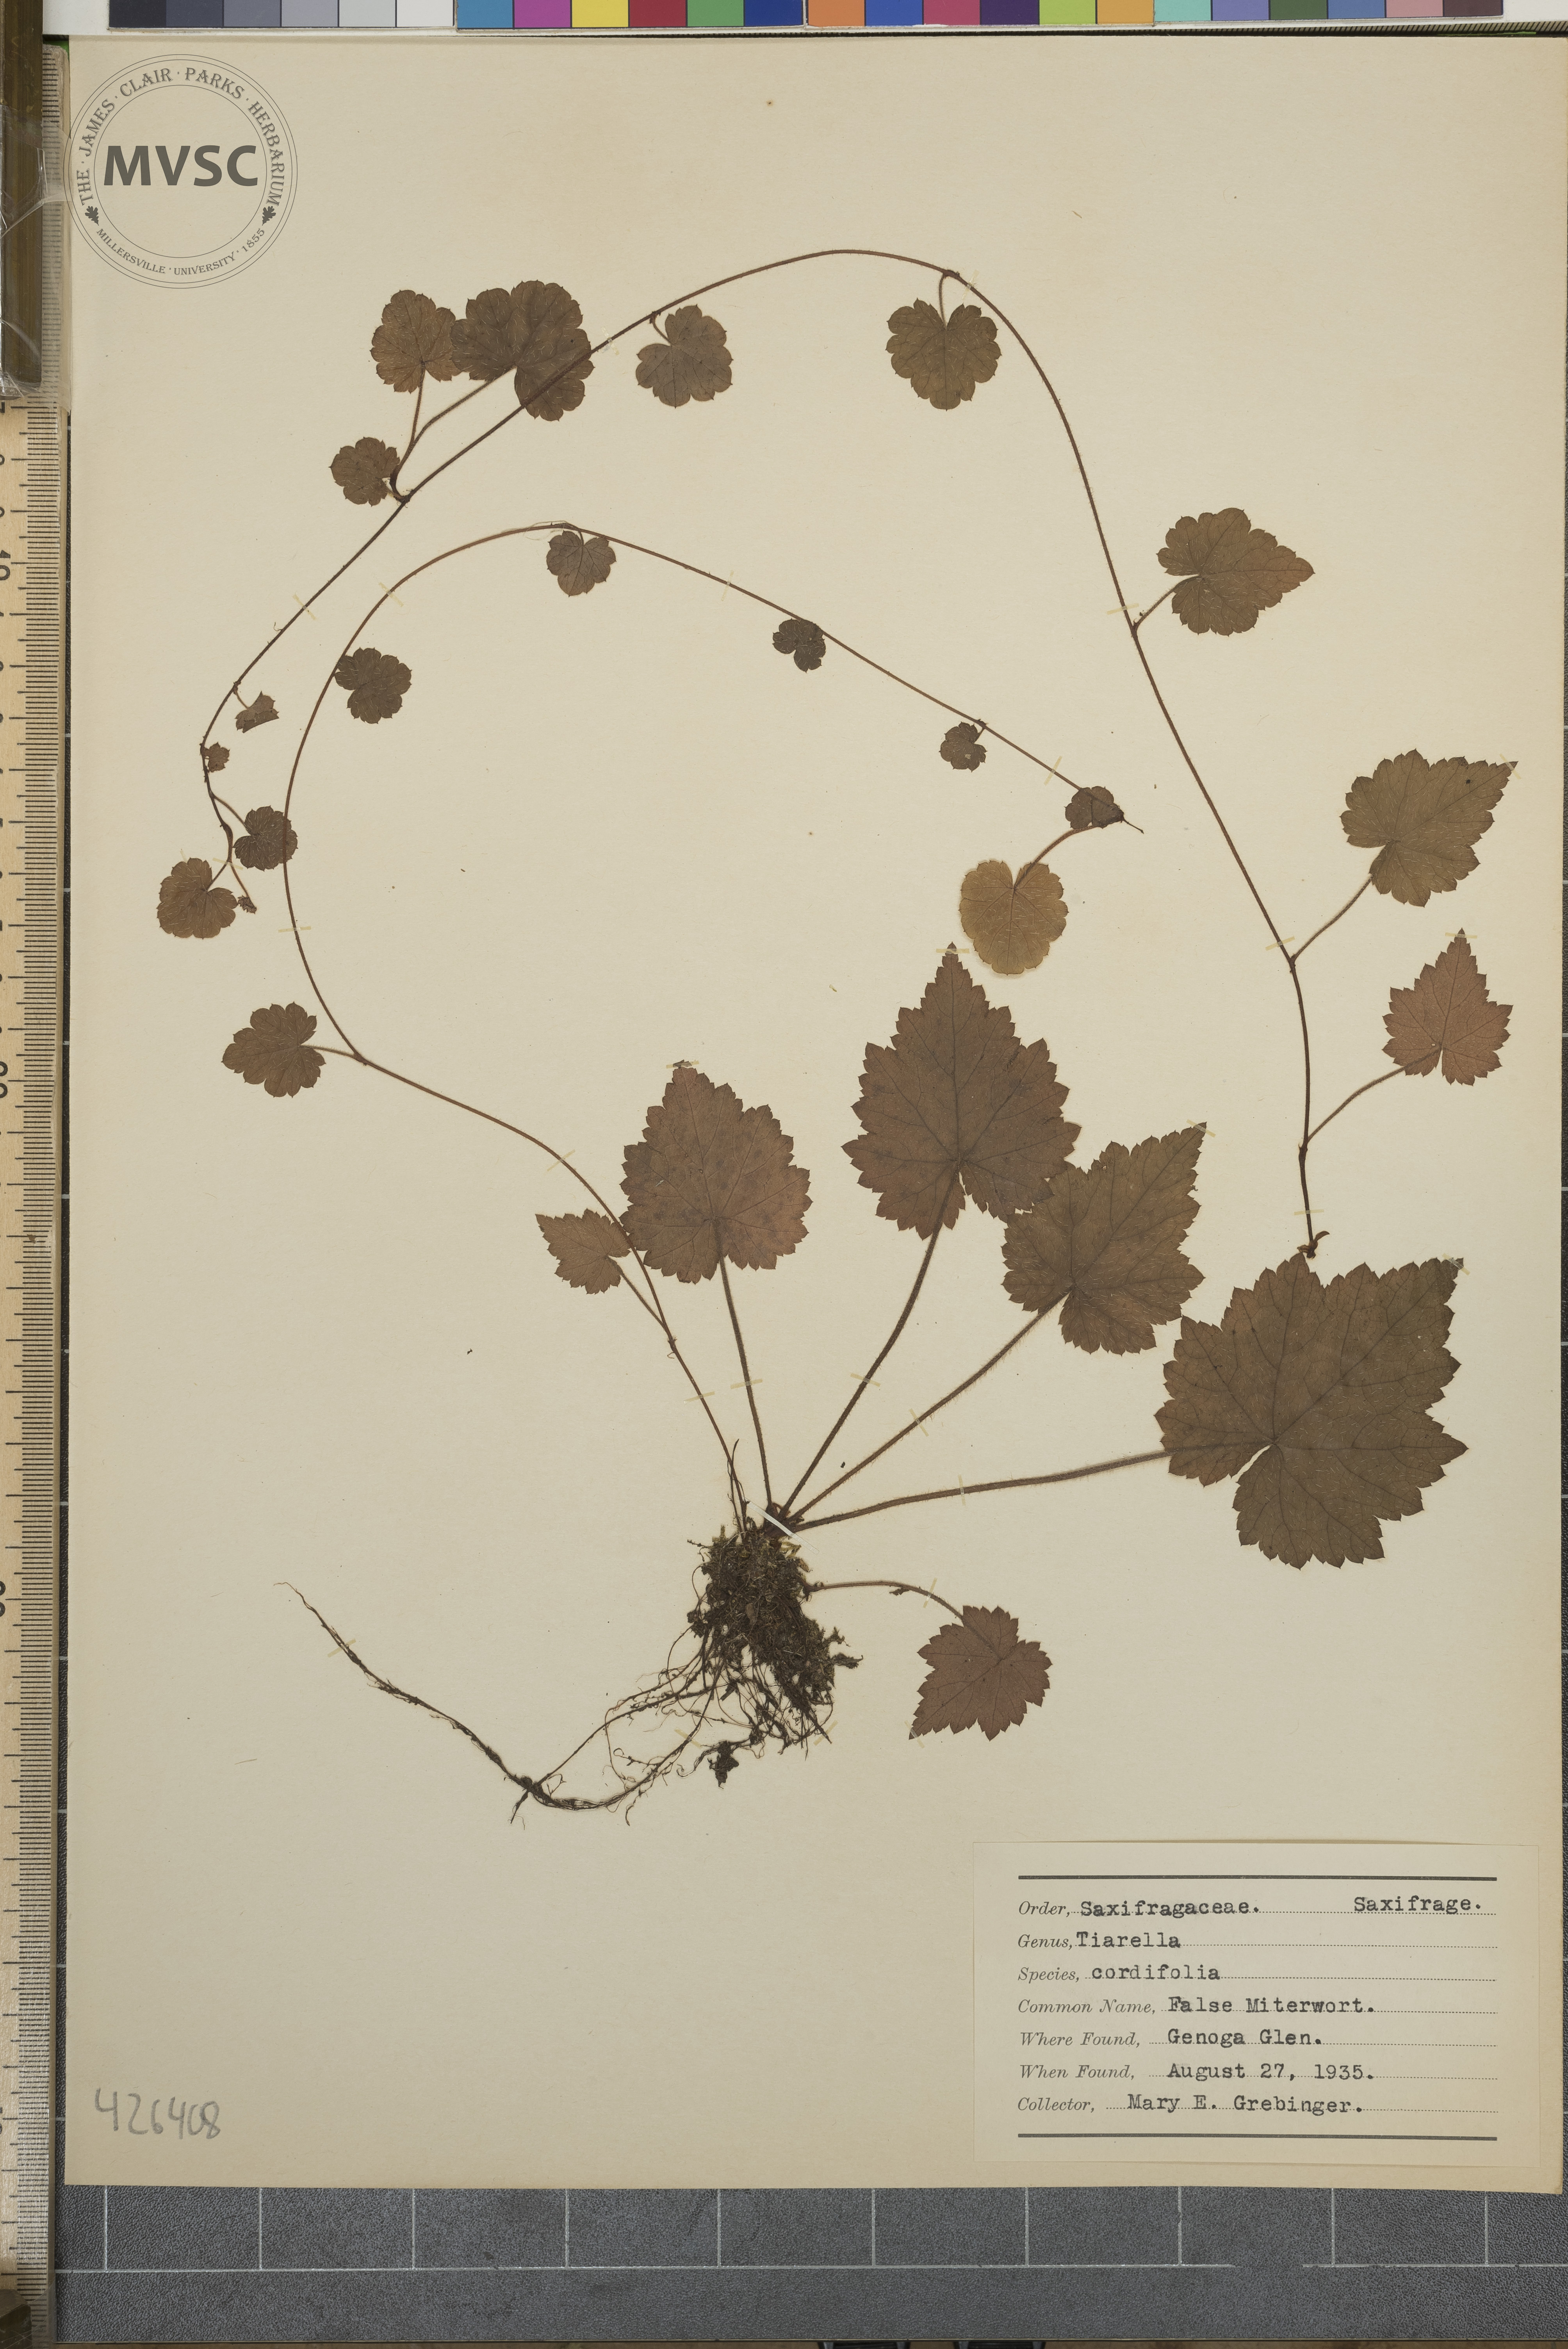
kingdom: Plantae
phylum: Tracheophyta
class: Magnoliopsida
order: Saxifragales
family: Saxifragaceae
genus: Tiarella
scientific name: Tiarella cordifolia
